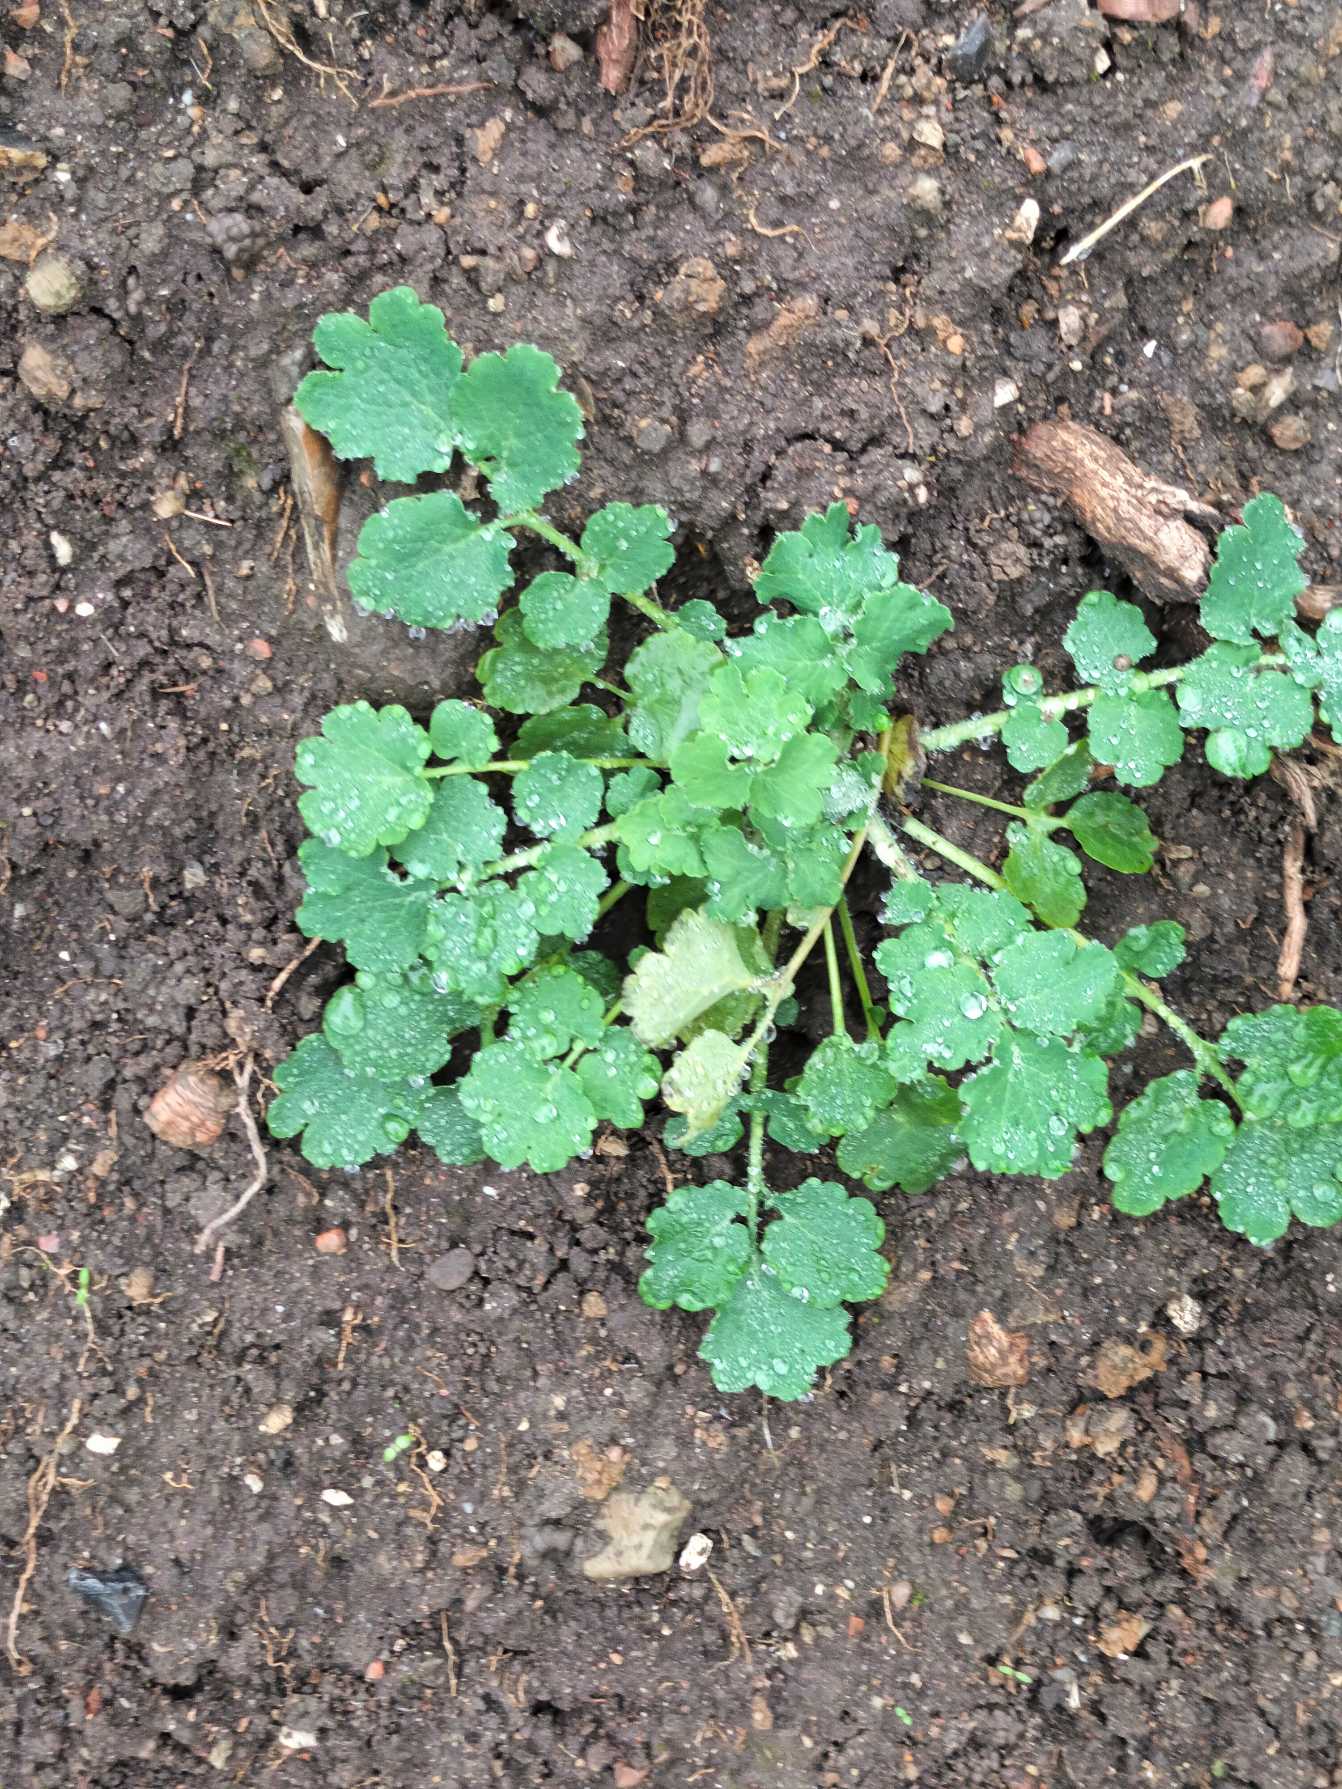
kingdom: Plantae
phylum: Tracheophyta
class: Magnoliopsida
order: Ranunculales
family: Papaveraceae
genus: Chelidonium
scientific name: Chelidonium majus
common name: Svaleurt
